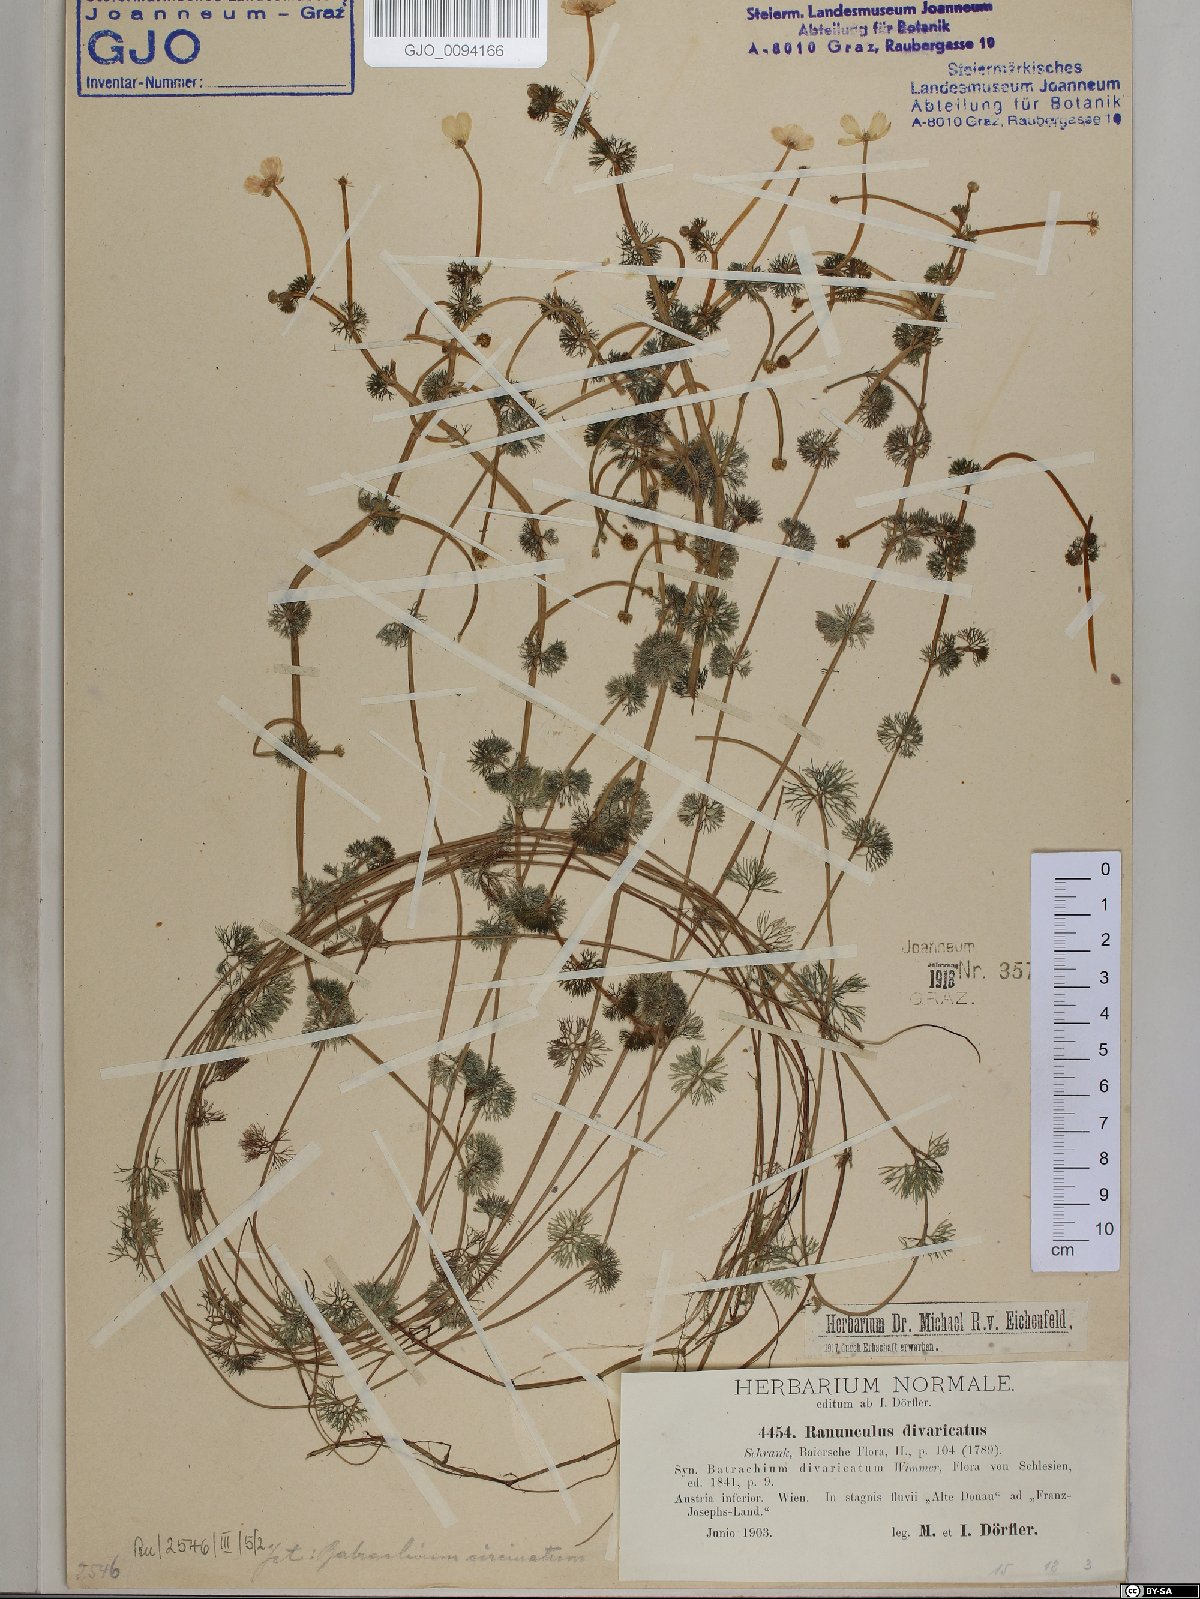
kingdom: Plantae
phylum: Tracheophyta
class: Magnoliopsida
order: Ranunculales
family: Ranunculaceae
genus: Ranunculus
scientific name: Ranunculus trichophyllus
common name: Thread-leaved water-crowfoot
